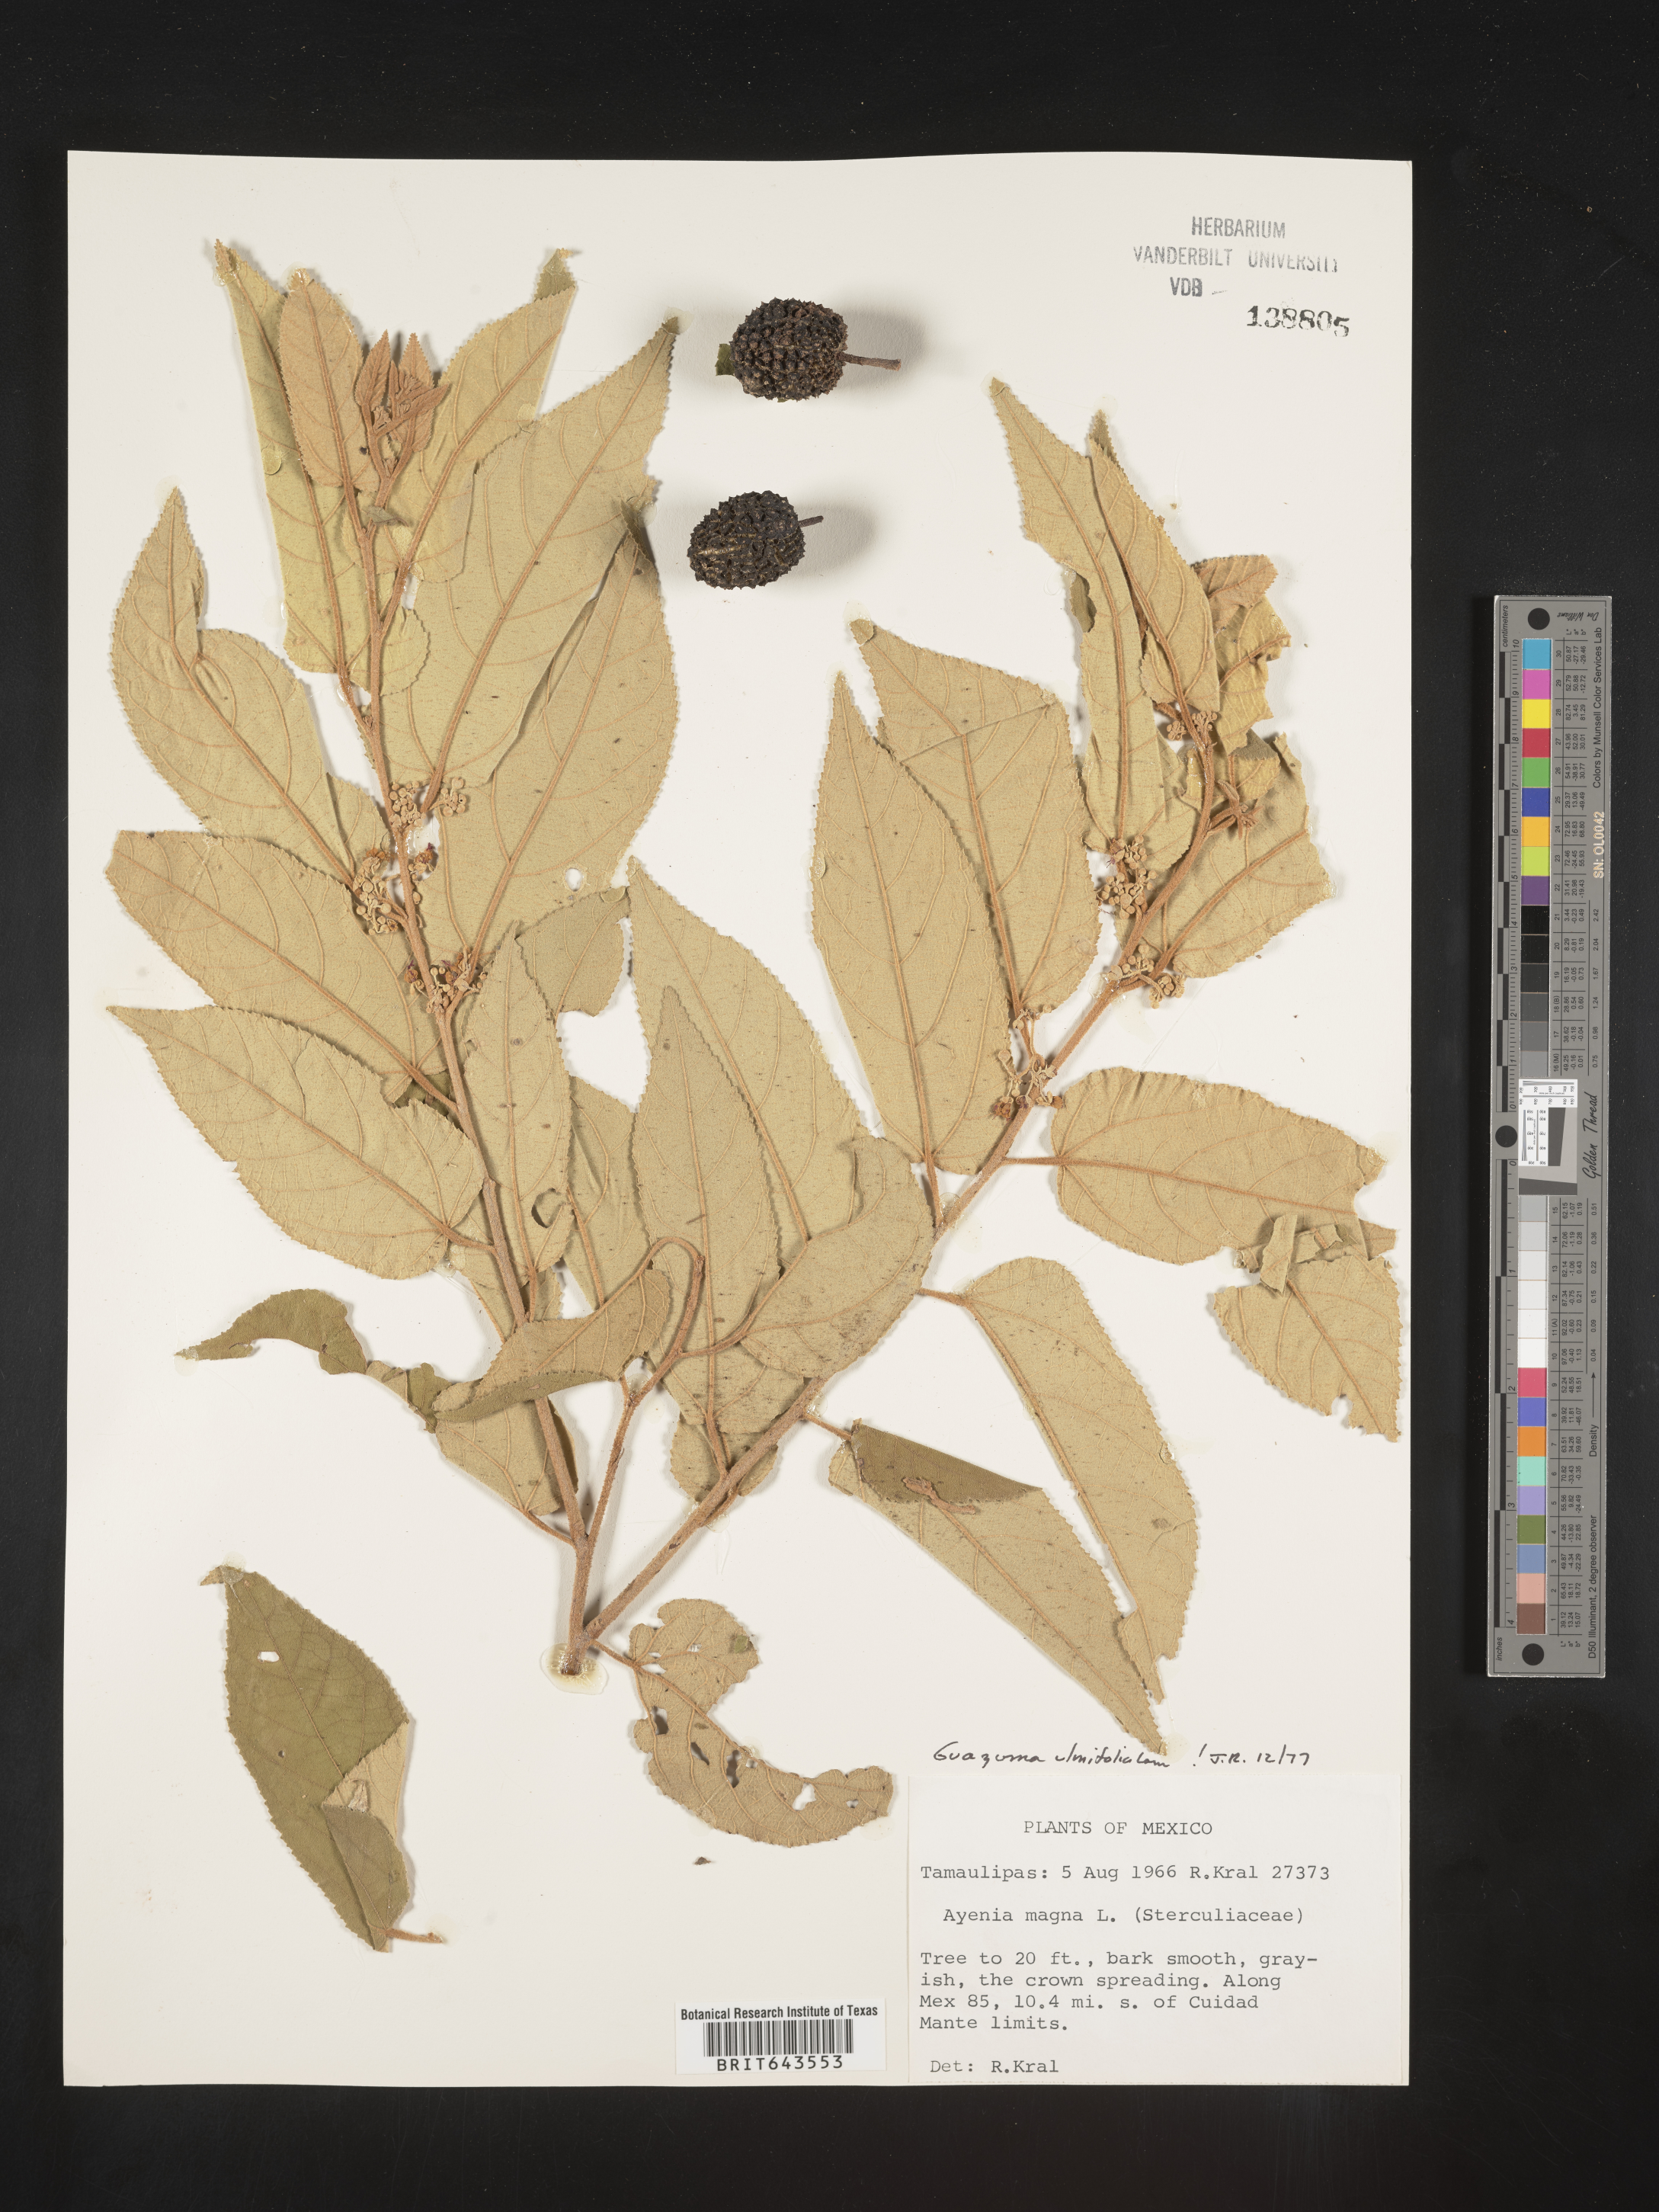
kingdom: Plantae
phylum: Tracheophyta
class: Magnoliopsida
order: Malvales
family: Malvaceae
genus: Guazuma
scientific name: Guazuma
